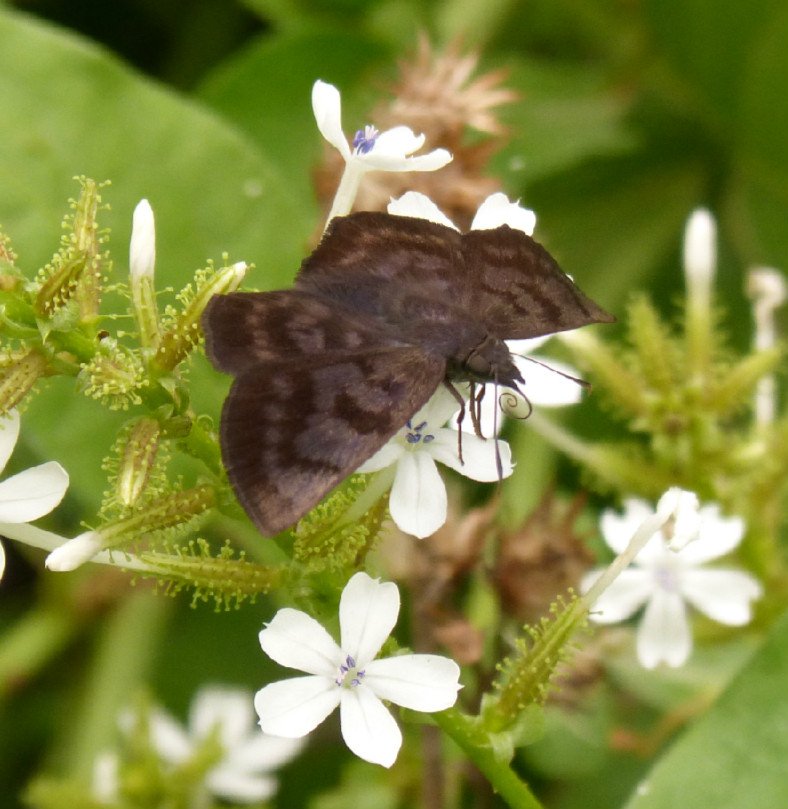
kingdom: Animalia
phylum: Arthropoda
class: Insecta
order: Lepidoptera
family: Hesperiidae
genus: Pellicia
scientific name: Pellicia costimacula
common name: Glazed Pellicia
